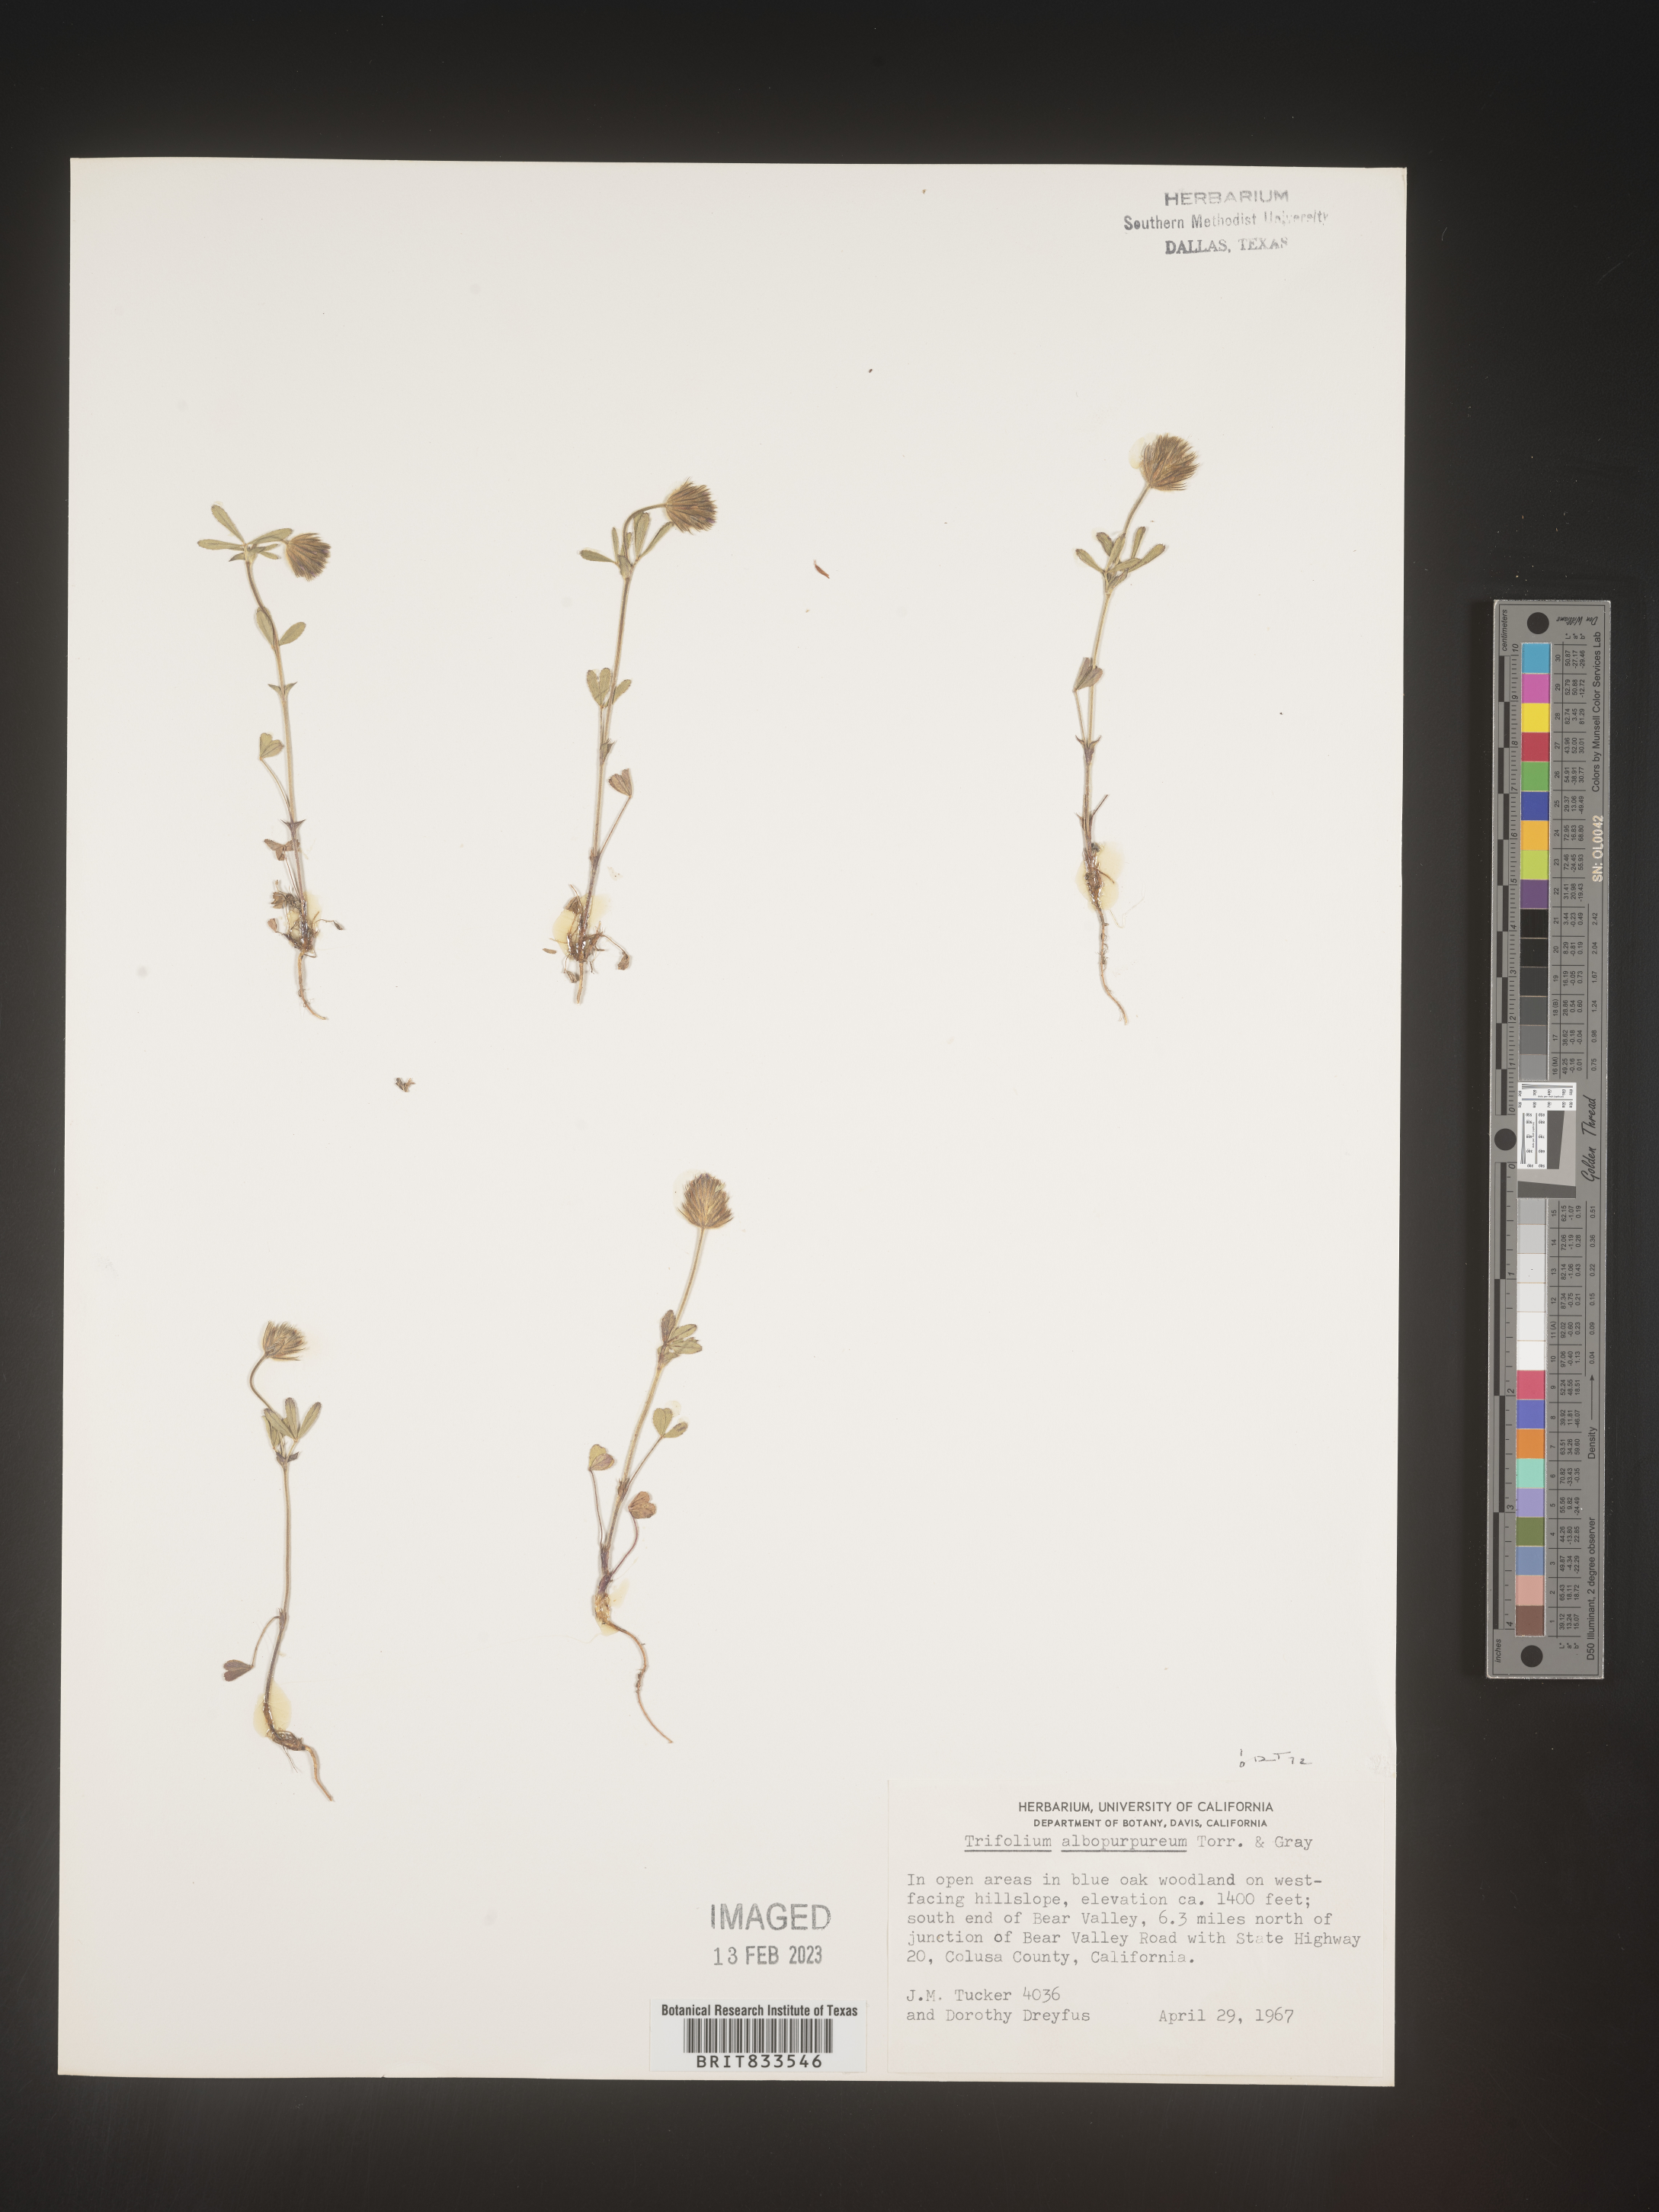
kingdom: Plantae
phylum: Tracheophyta
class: Magnoliopsida
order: Fabales
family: Fabaceae
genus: Trifolium
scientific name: Trifolium
